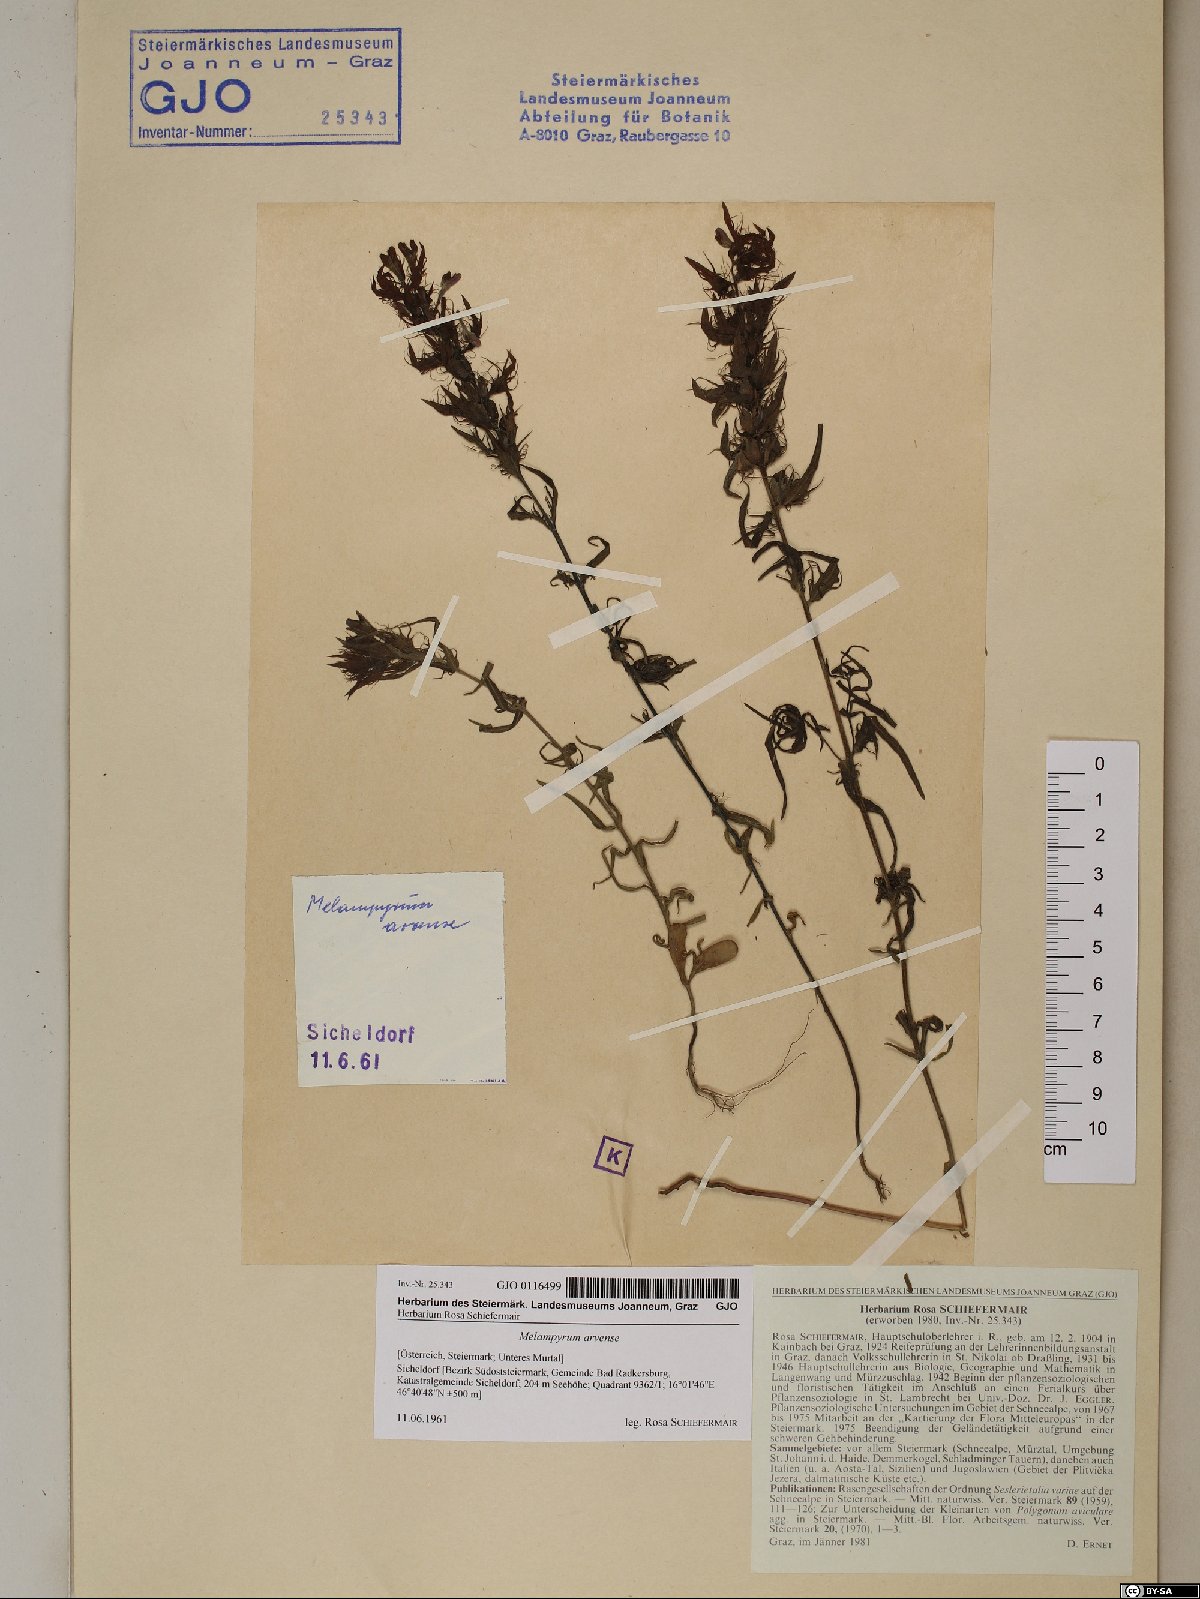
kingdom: Plantae
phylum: Tracheophyta
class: Magnoliopsida
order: Lamiales
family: Orobanchaceae
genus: Melampyrum
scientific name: Melampyrum arvense
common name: Field cow-wheat
